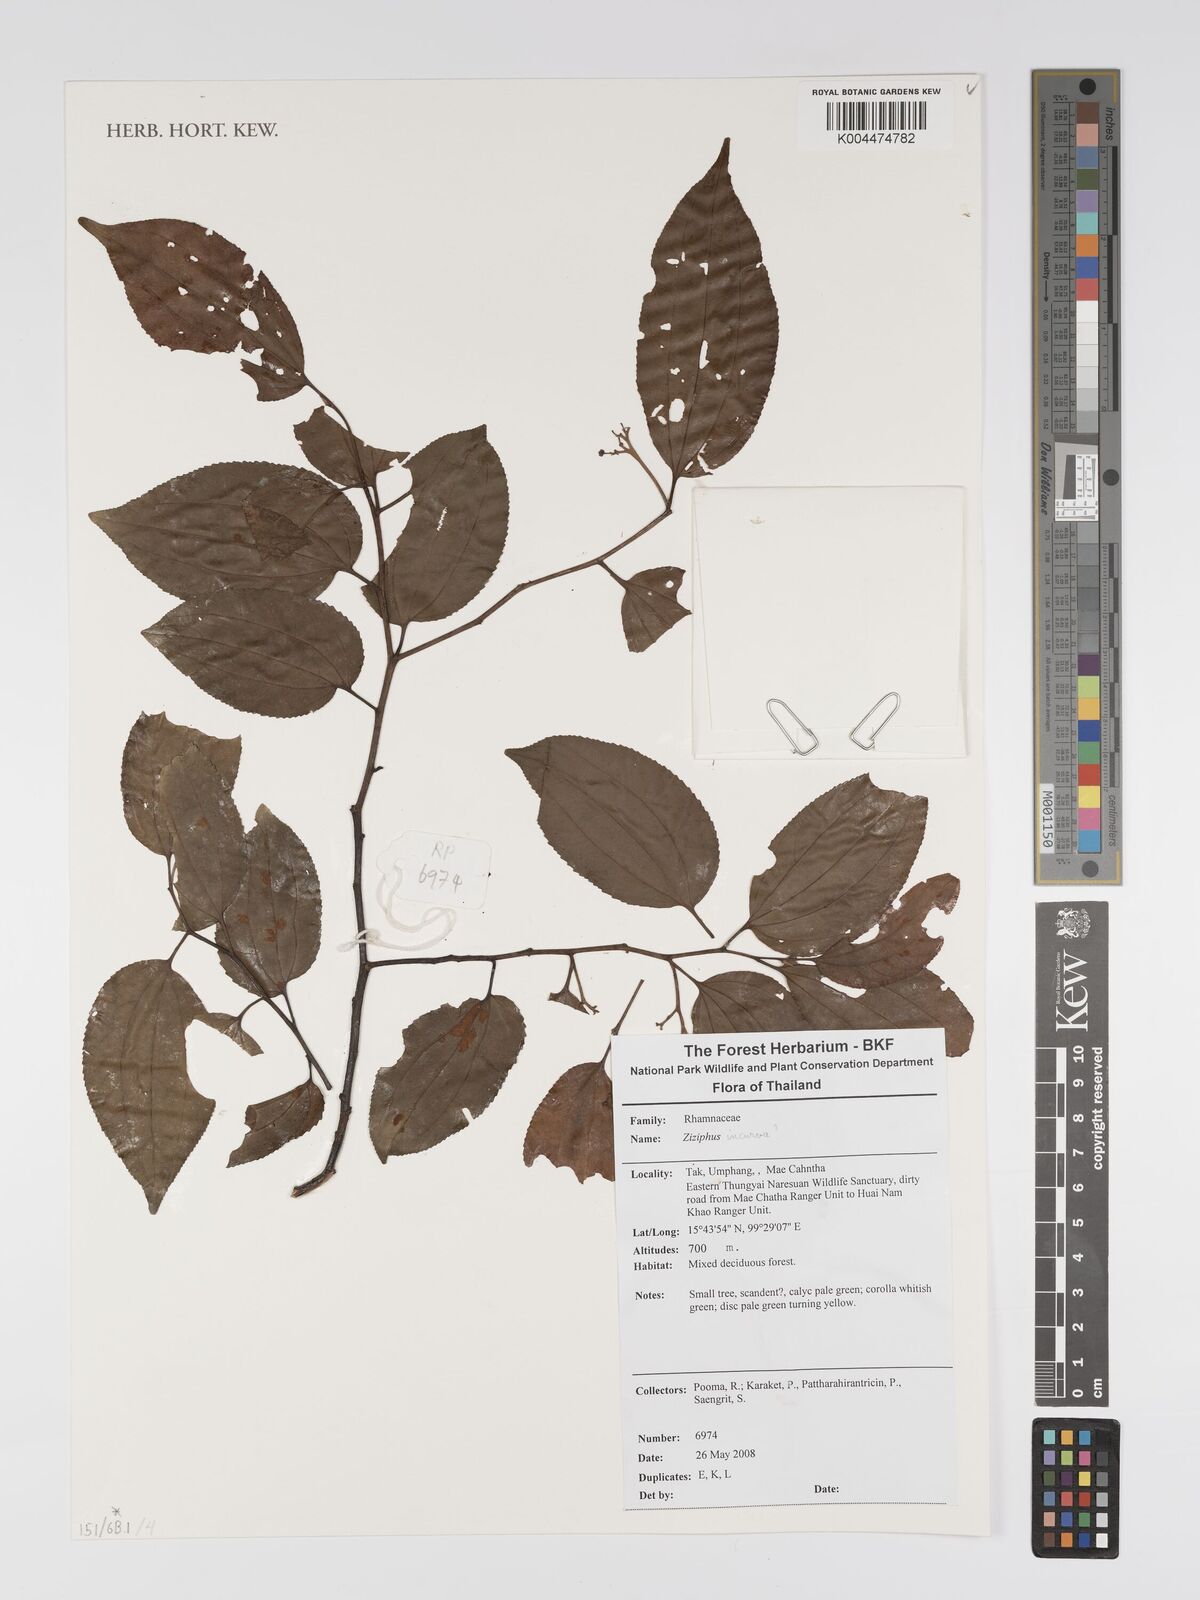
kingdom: Plantae
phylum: Tracheophyta
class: Magnoliopsida
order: Rosales
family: Rhamnaceae
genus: Ziziphus
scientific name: Ziziphus incurva
